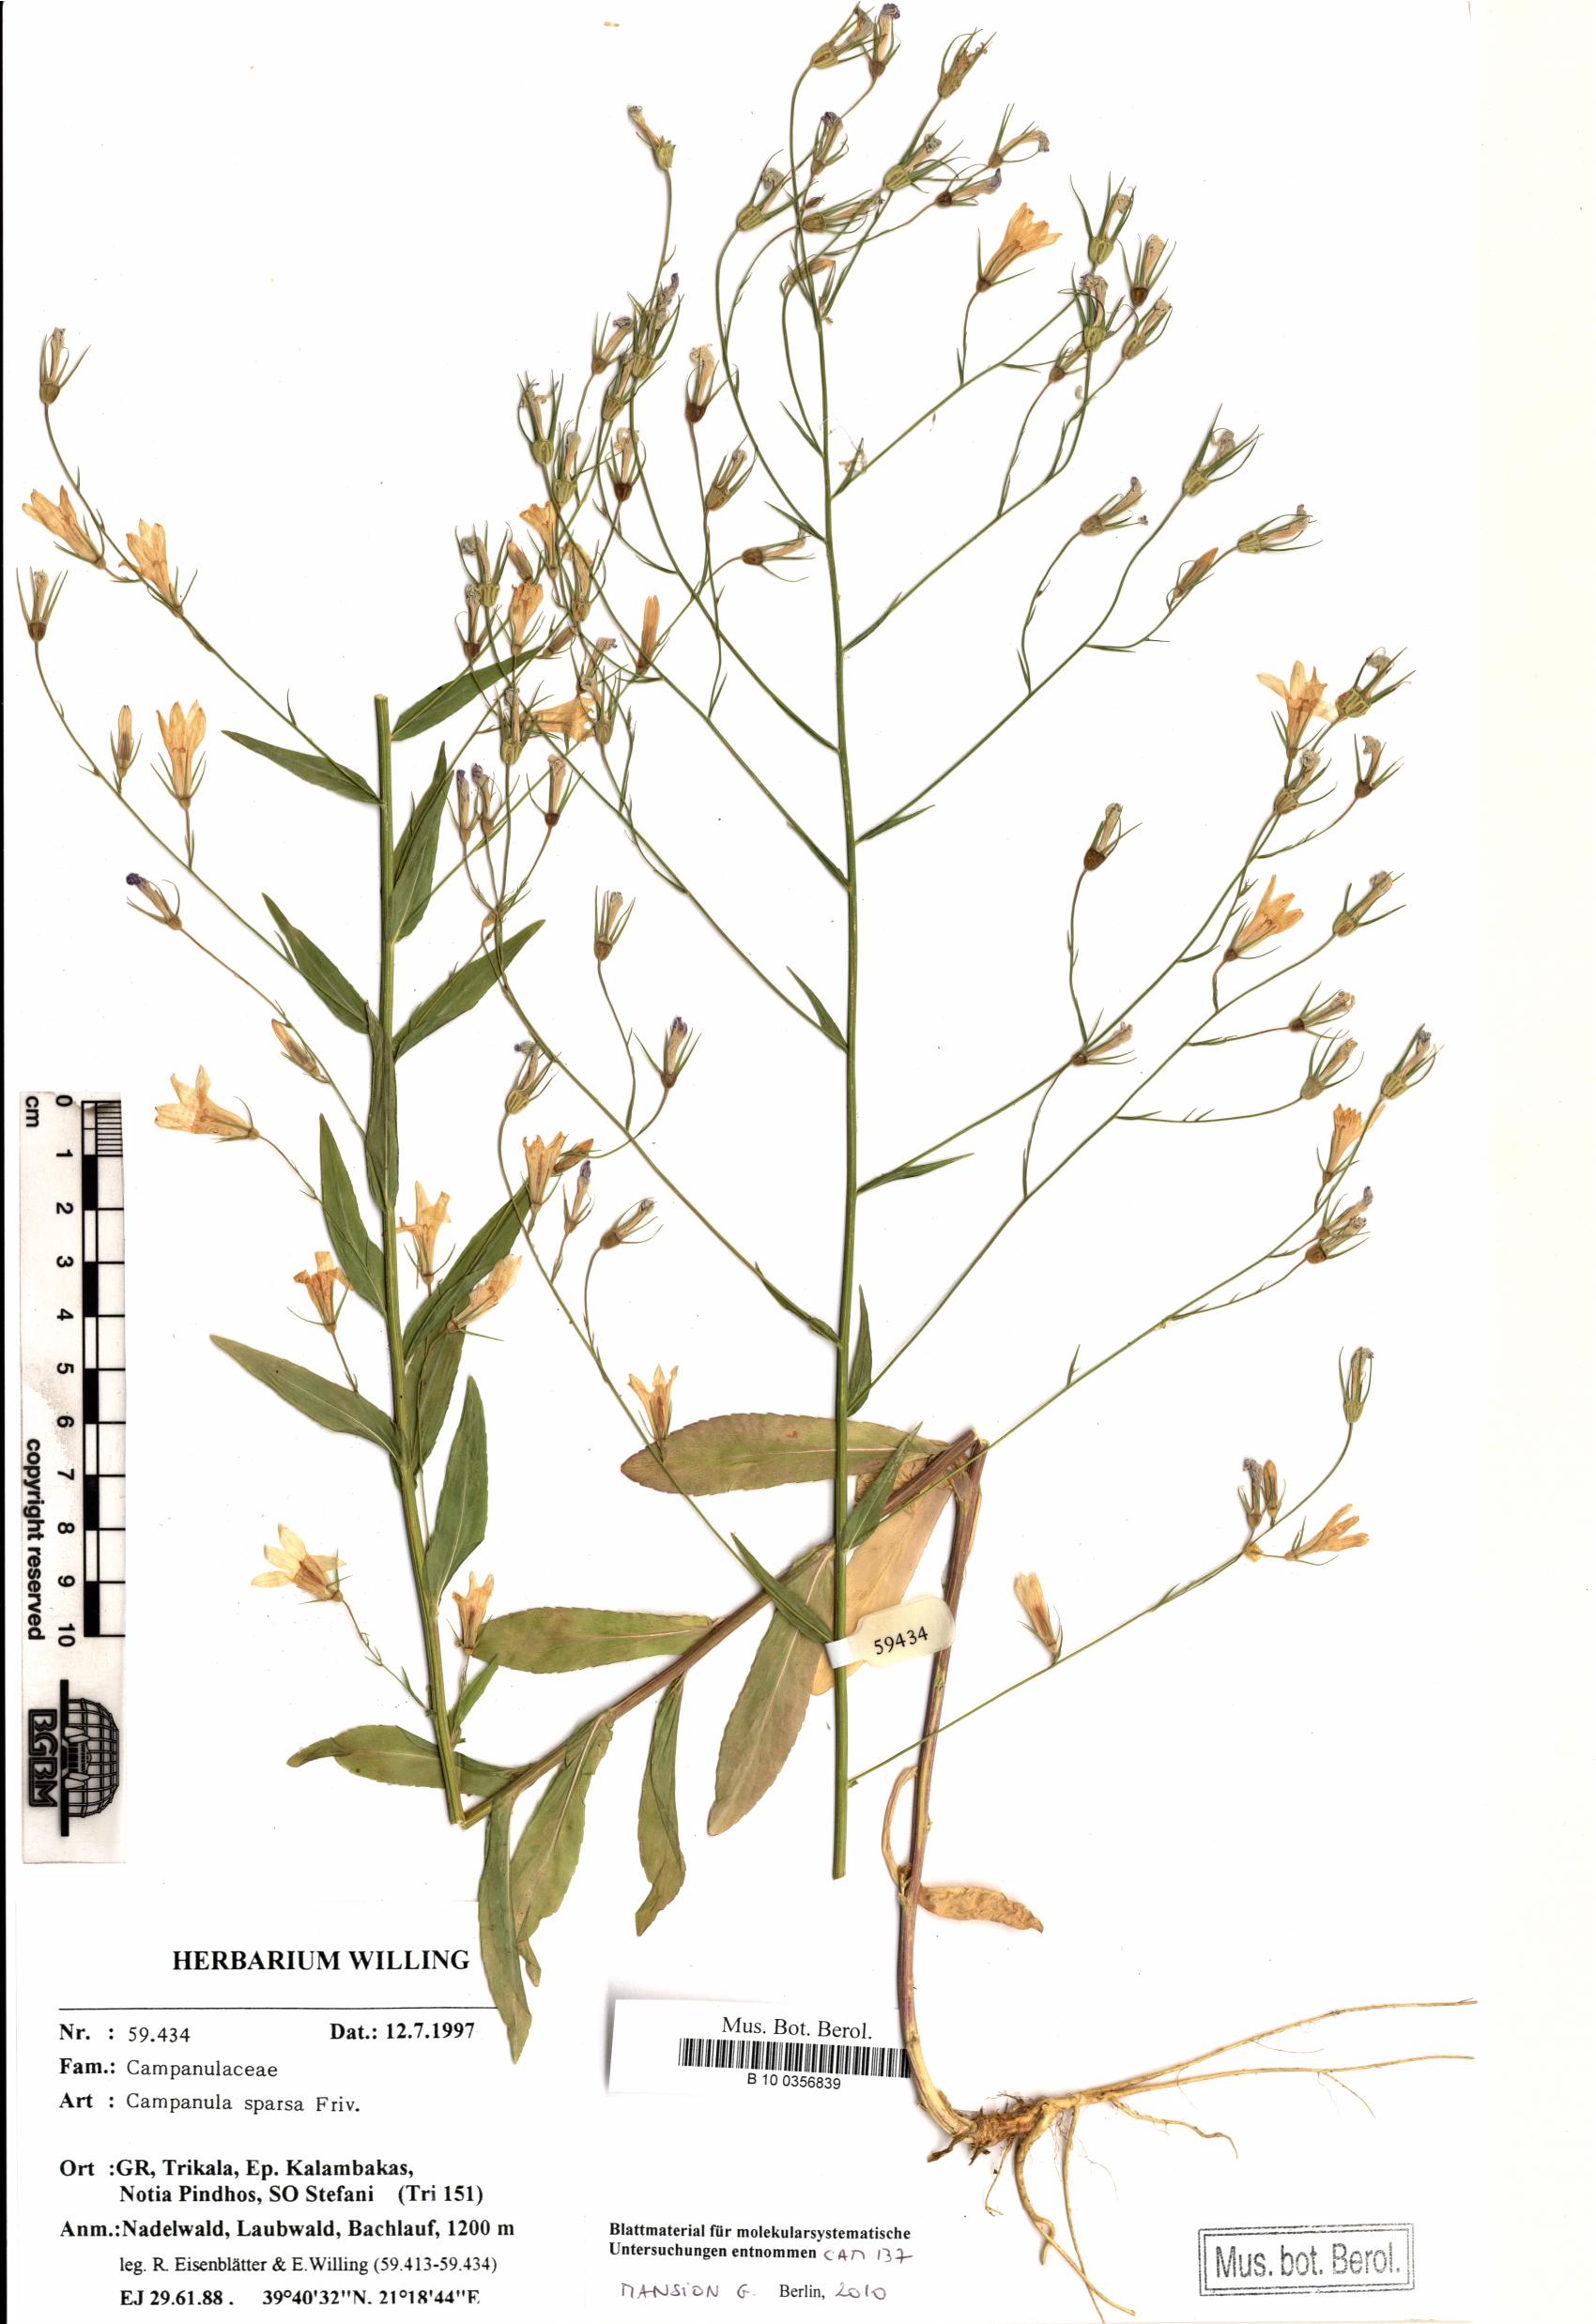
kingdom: Plantae
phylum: Tracheophyta
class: Magnoliopsida
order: Asterales
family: Campanulaceae
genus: Campanula
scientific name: Campanula sparsa
